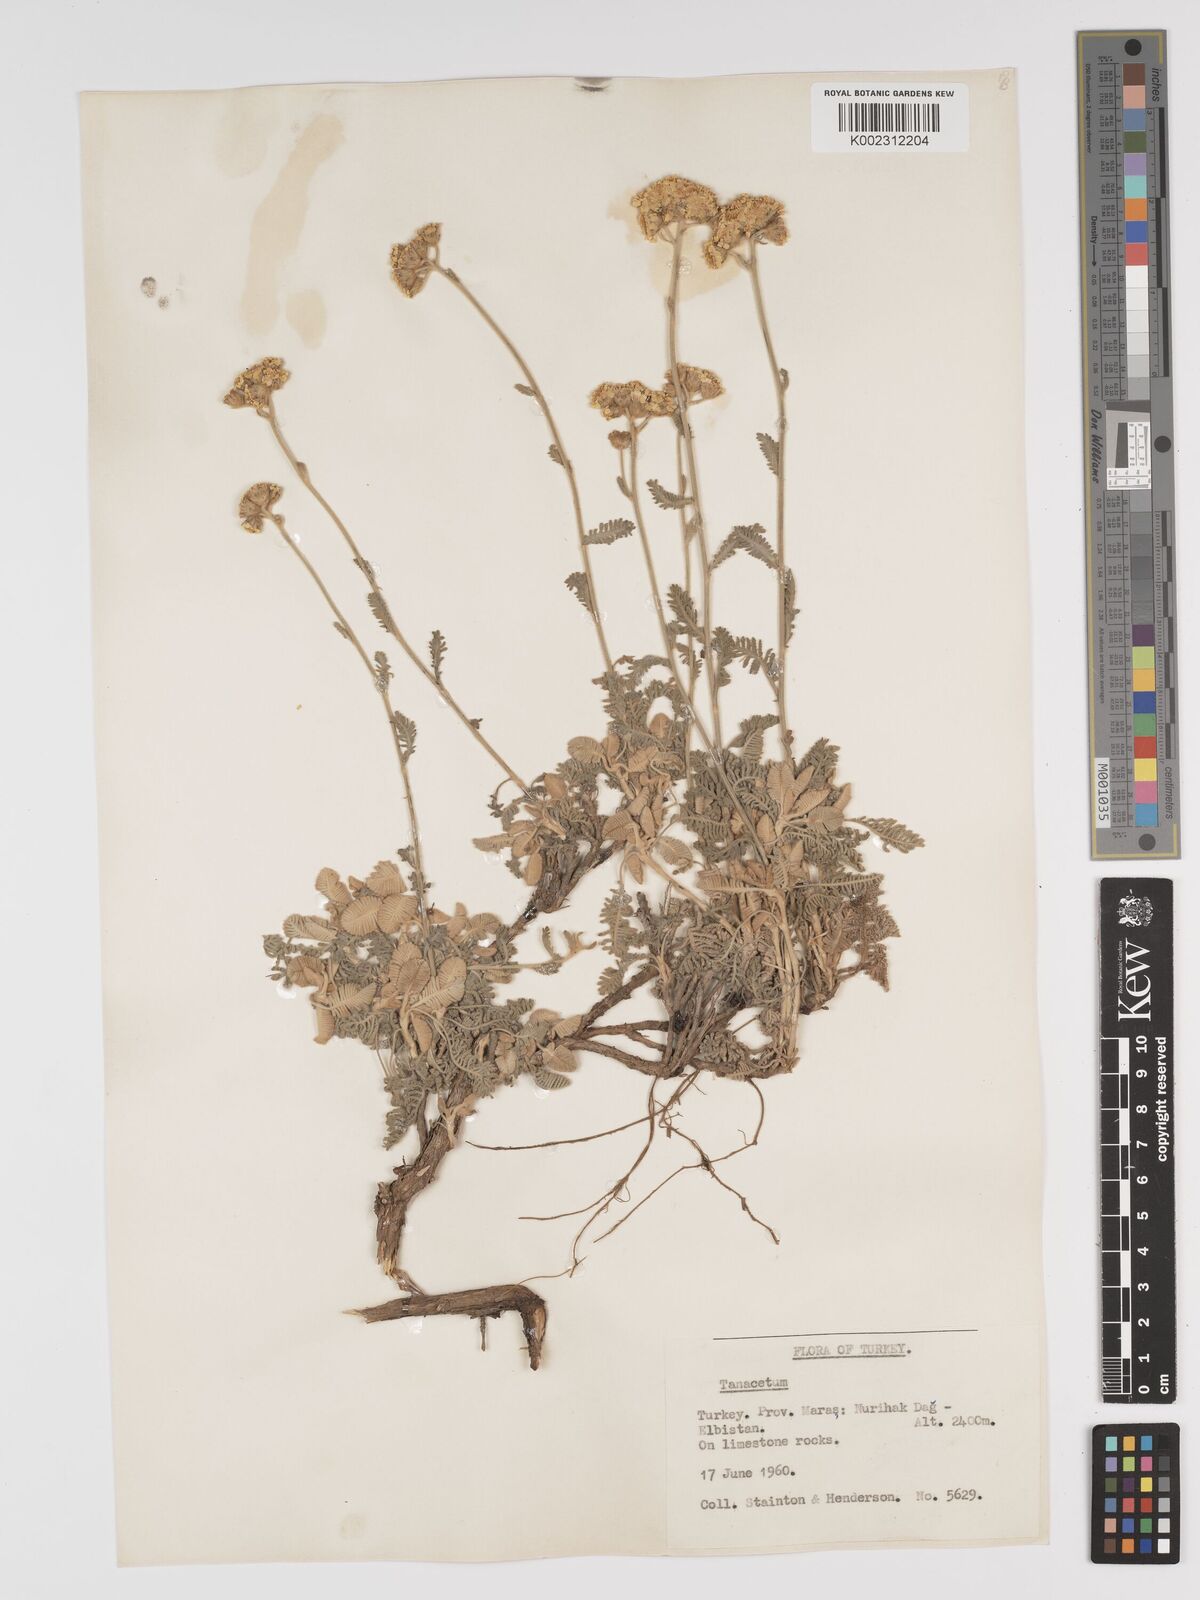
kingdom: Plantae
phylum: Tracheophyta
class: Magnoliopsida
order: Asterales
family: Asteraceae
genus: Tanacetum
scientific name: Tanacetum
